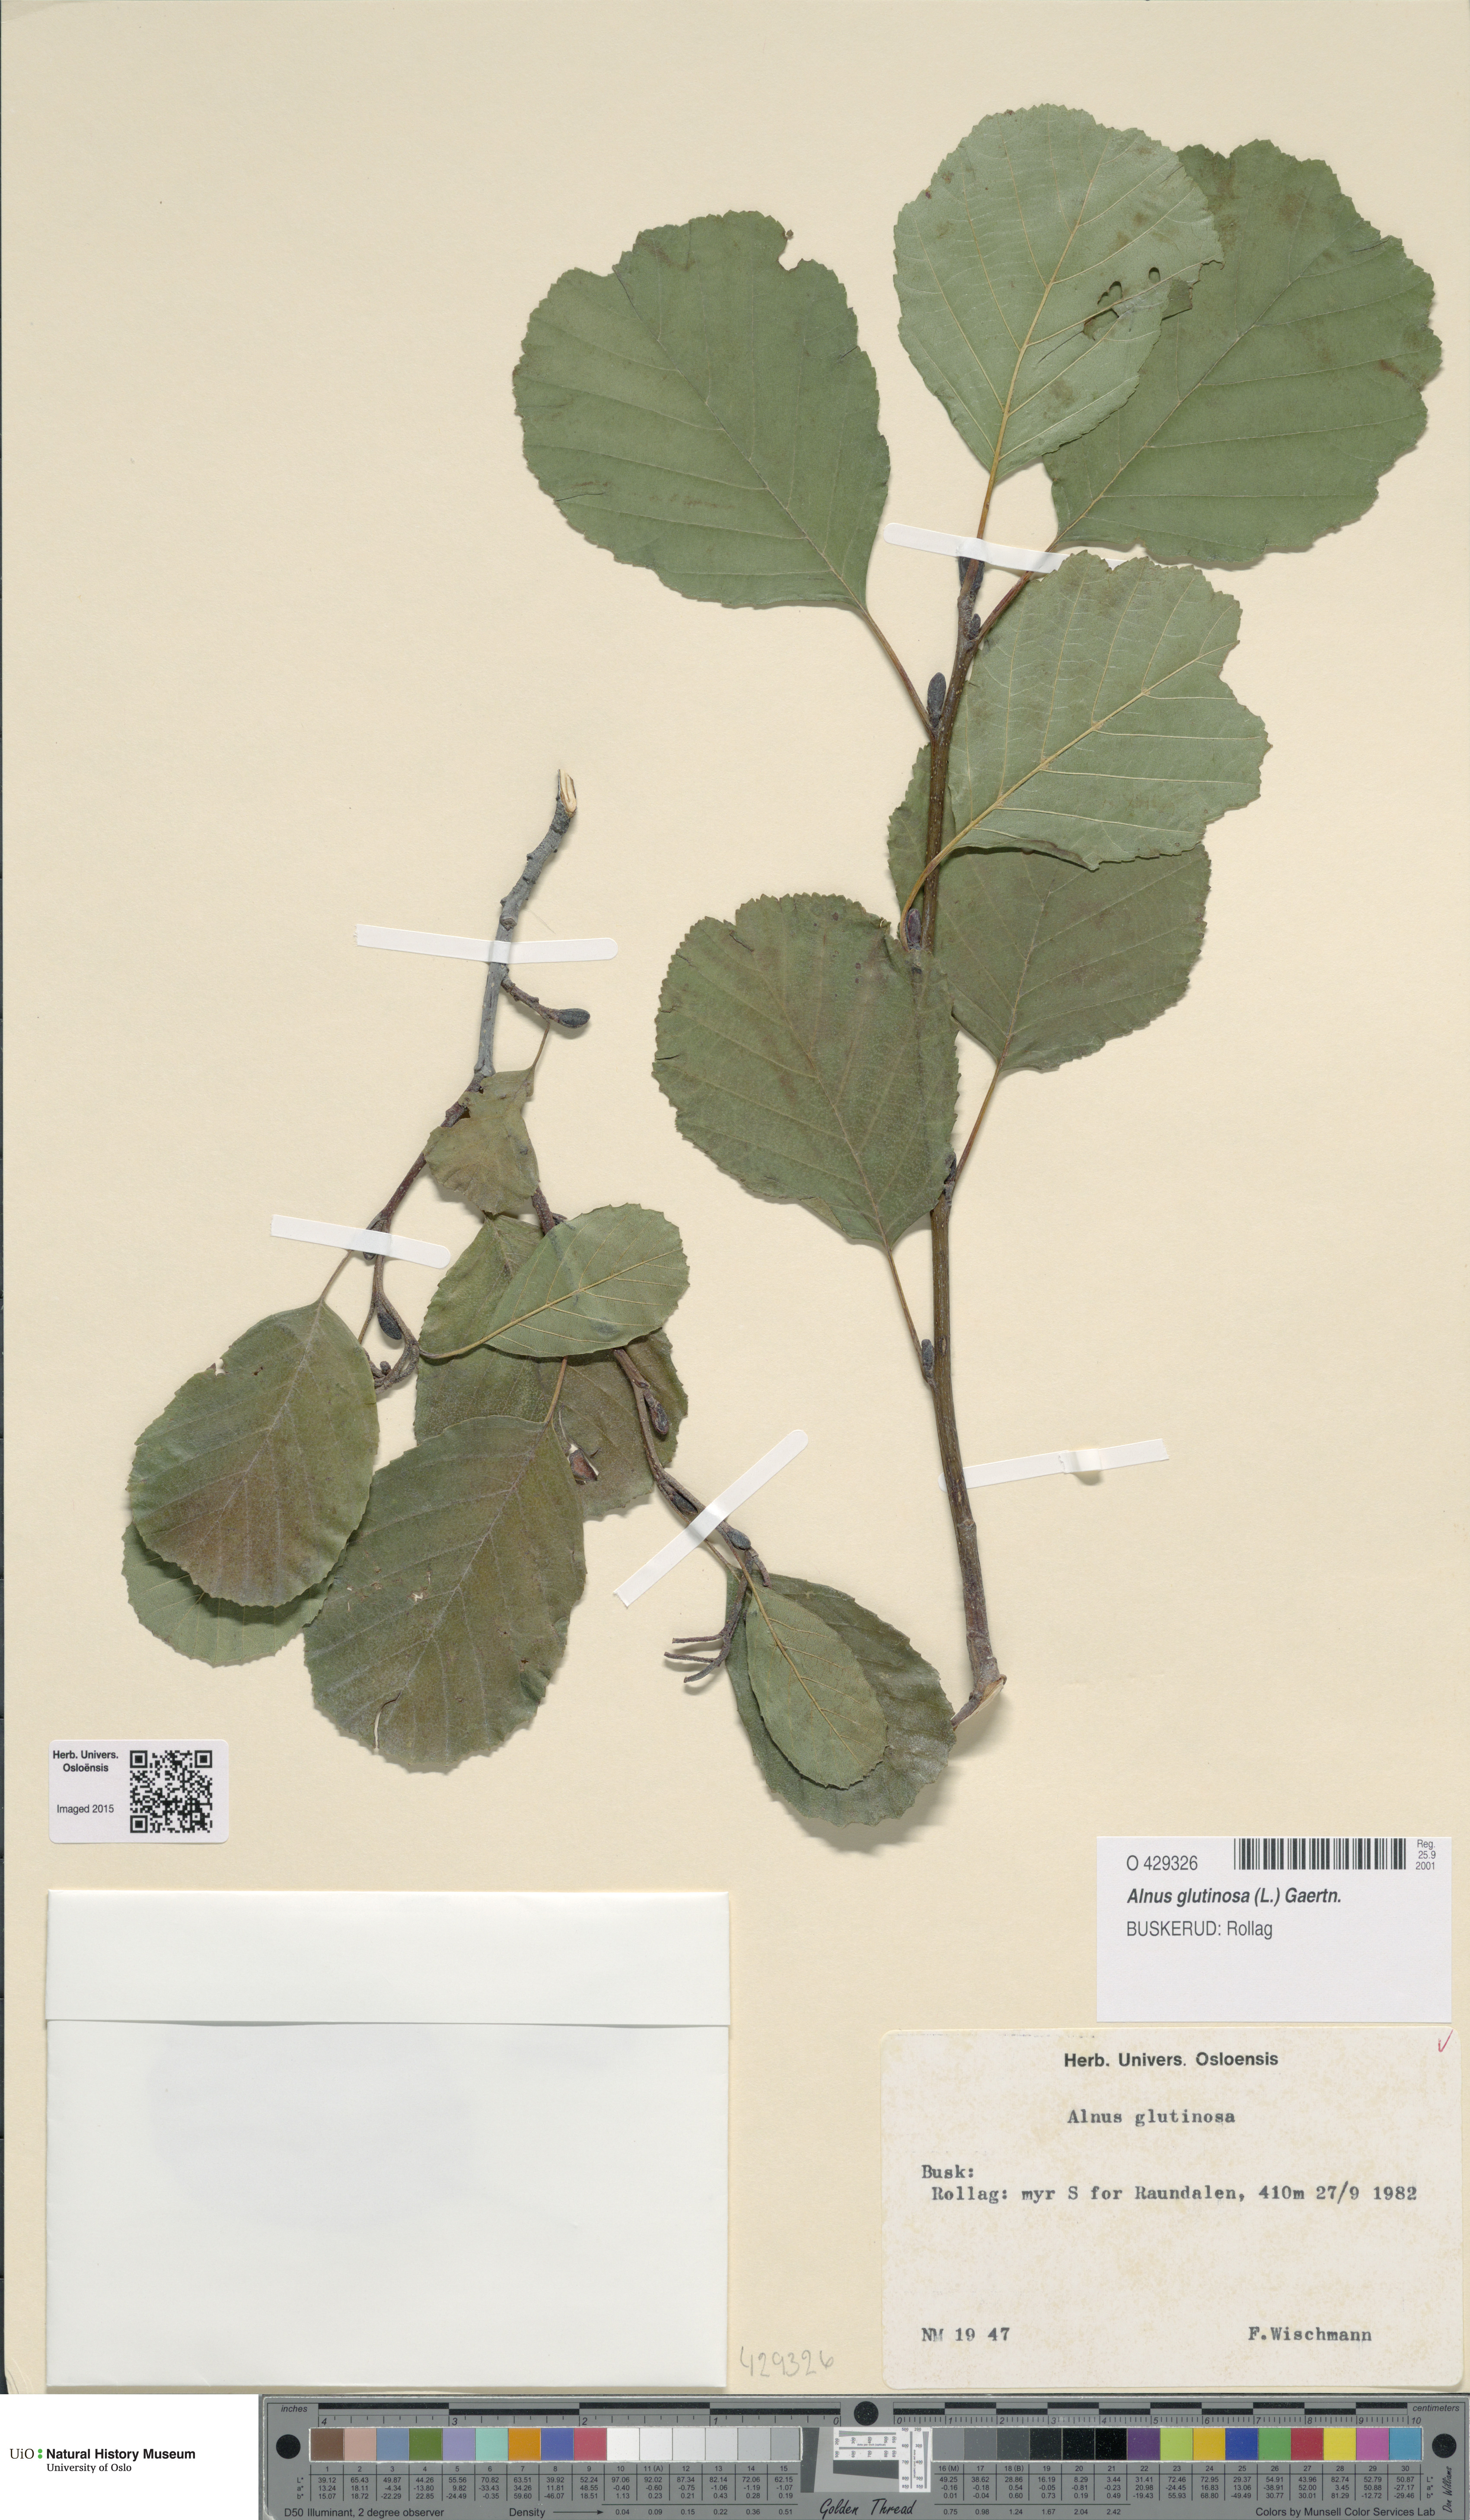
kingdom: Plantae
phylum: Tracheophyta
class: Magnoliopsida
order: Fagales
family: Betulaceae
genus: Alnus
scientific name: Alnus glutinosa
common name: Black alder
